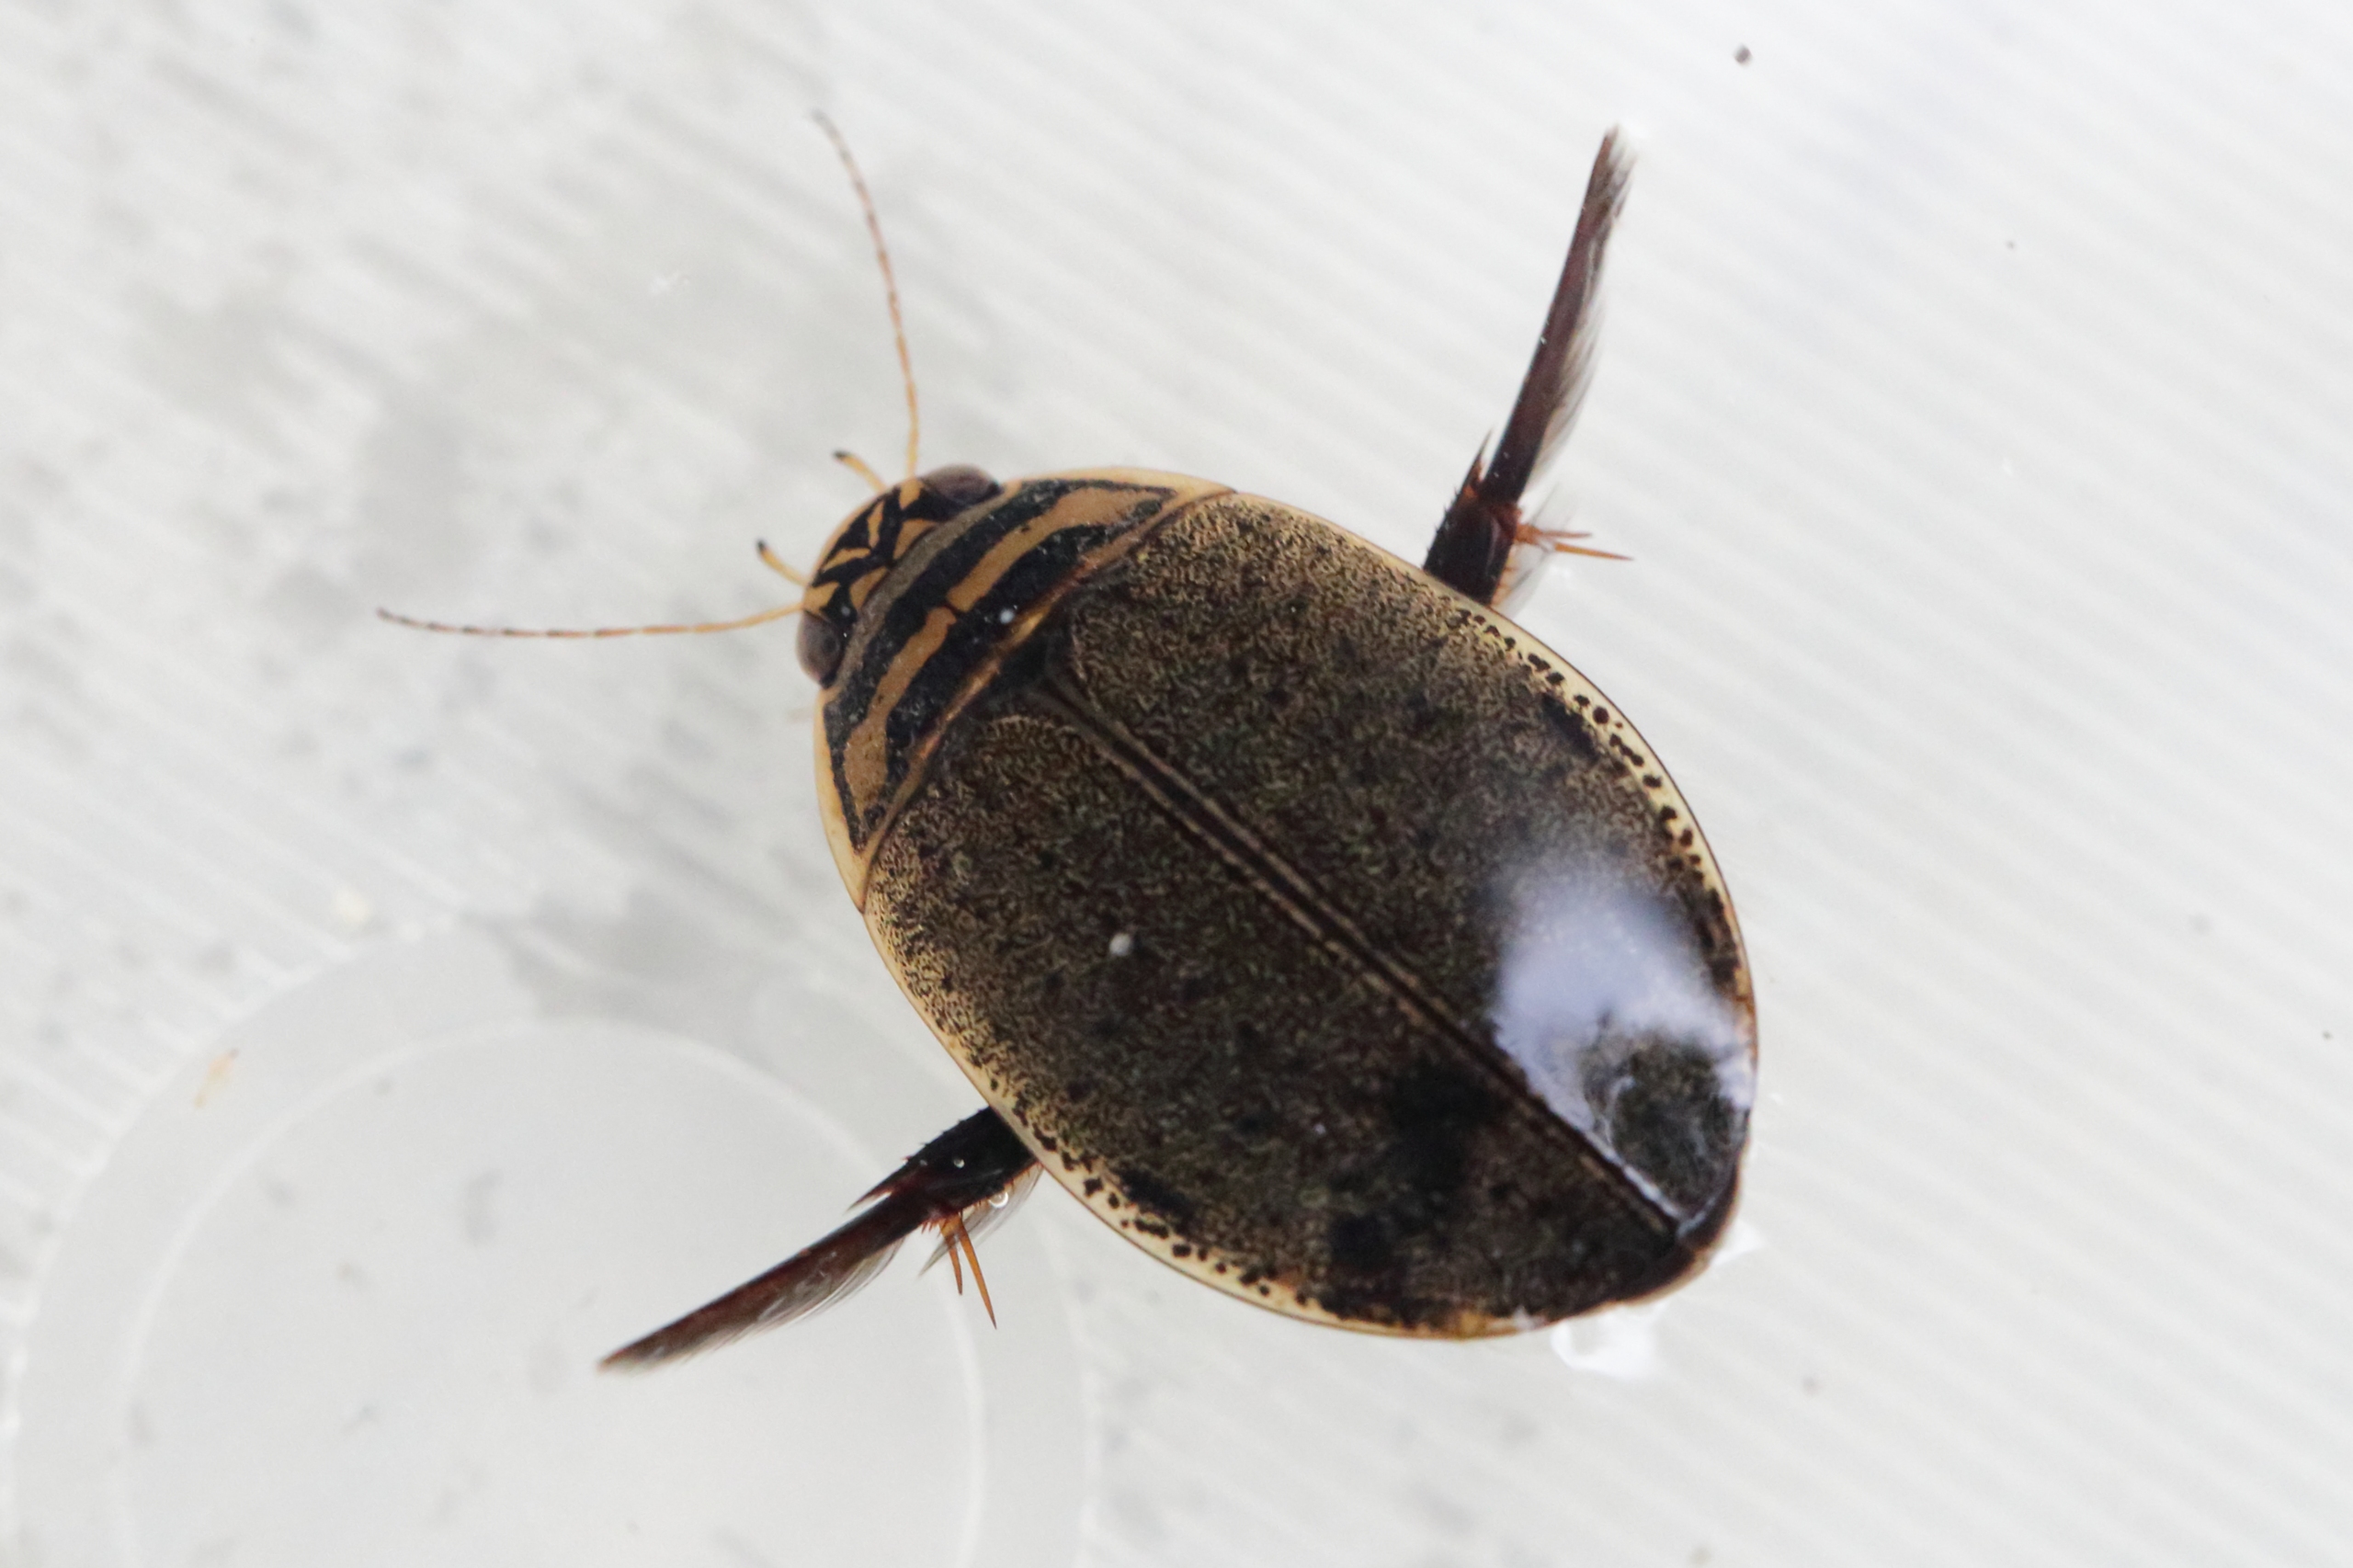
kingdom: Animalia
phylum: Arthropoda
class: Insecta
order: Coleoptera
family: Dytiscidae
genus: Acilius
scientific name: Acilius sulcatus
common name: Stribet skivevandkalv
